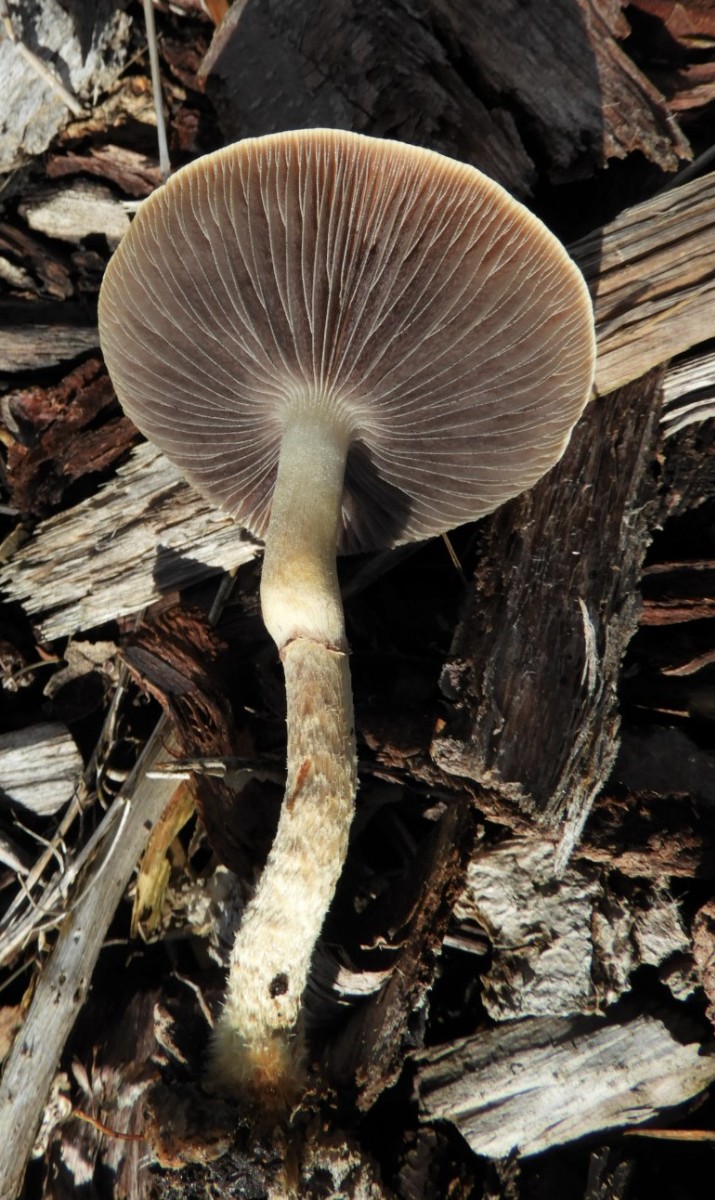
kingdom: Fungi
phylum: Basidiomycota
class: Agaricomycetes
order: Agaricales
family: Strophariaceae
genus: Leratiomyces
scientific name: Leratiomyces squamosus
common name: skællet bredblad
